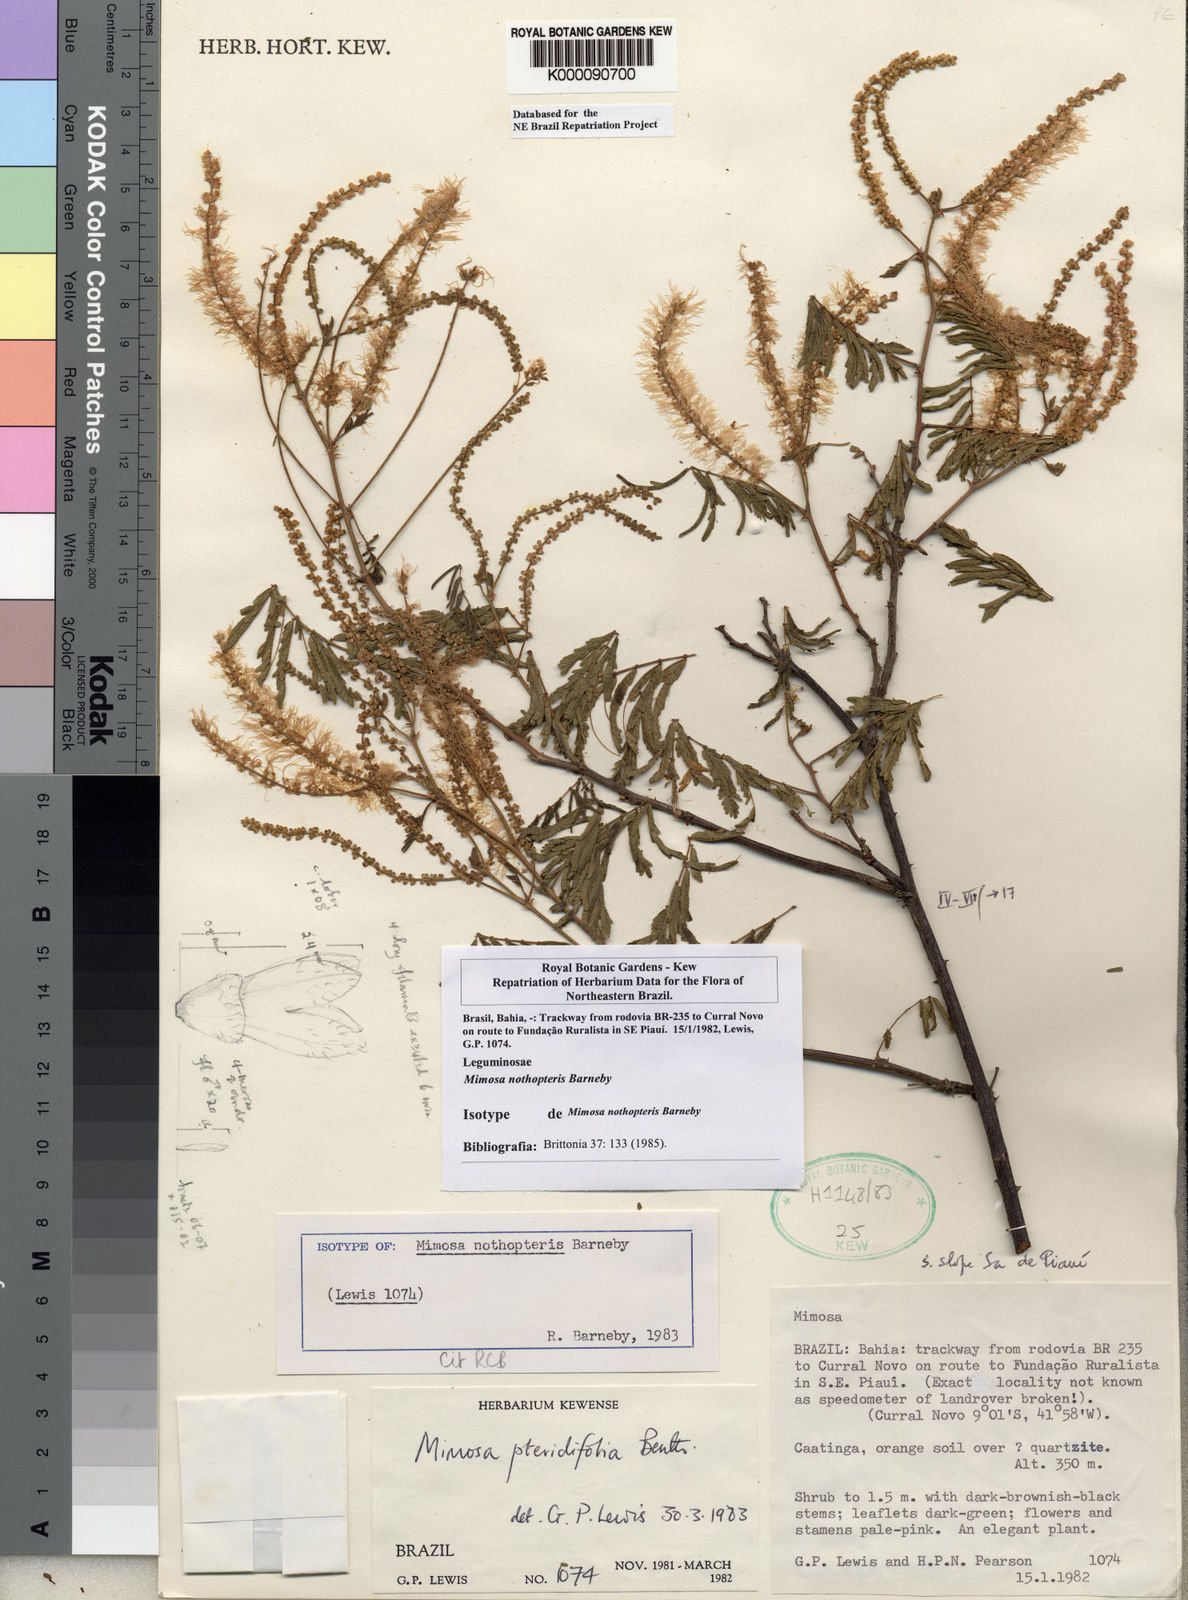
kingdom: Plantae
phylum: Tracheophyta
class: Magnoliopsida
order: Fabales
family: Fabaceae
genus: Mimosa
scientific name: Mimosa nothopteris
